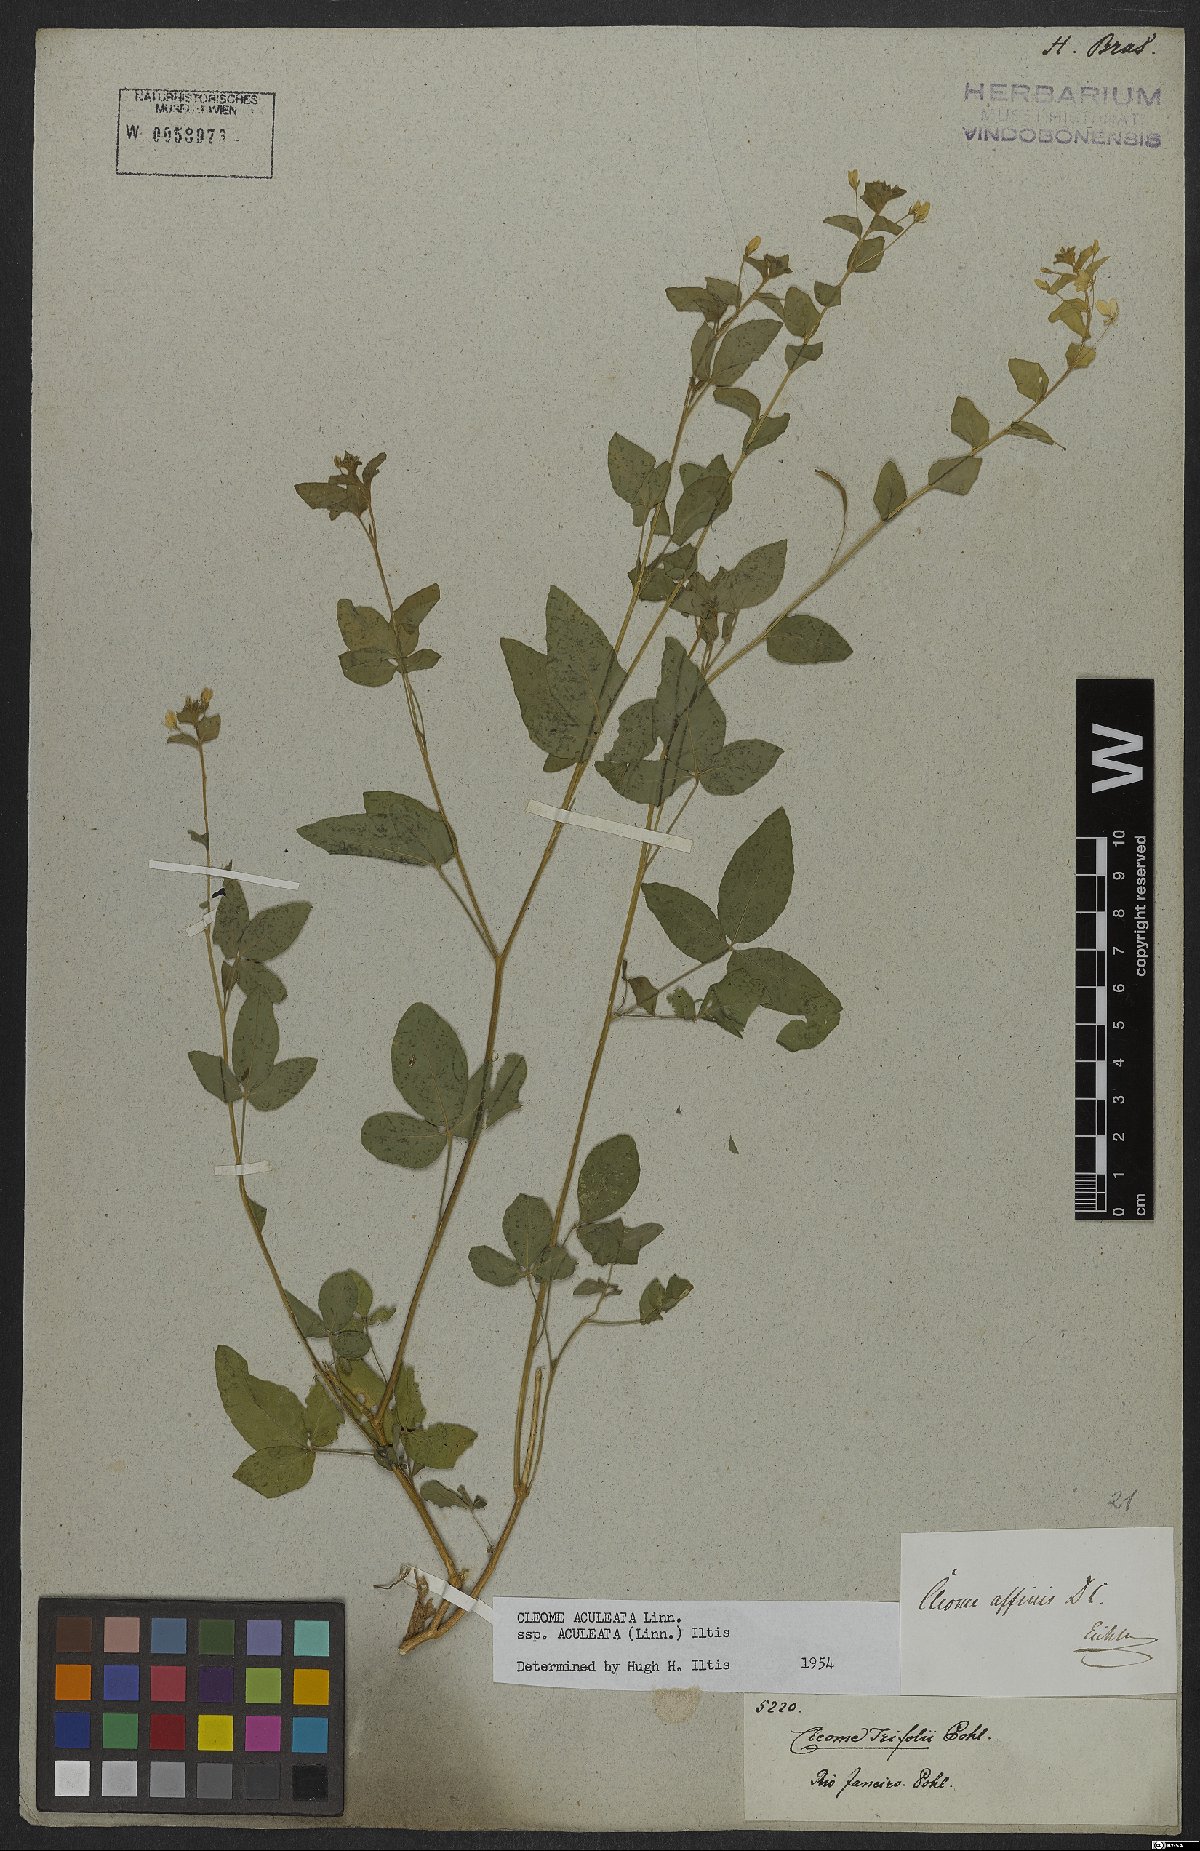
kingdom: Plantae
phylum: Tracheophyta
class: Magnoliopsida
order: Brassicales
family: Cleomaceae
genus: Tarenaya
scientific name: Tarenaya aculeata
